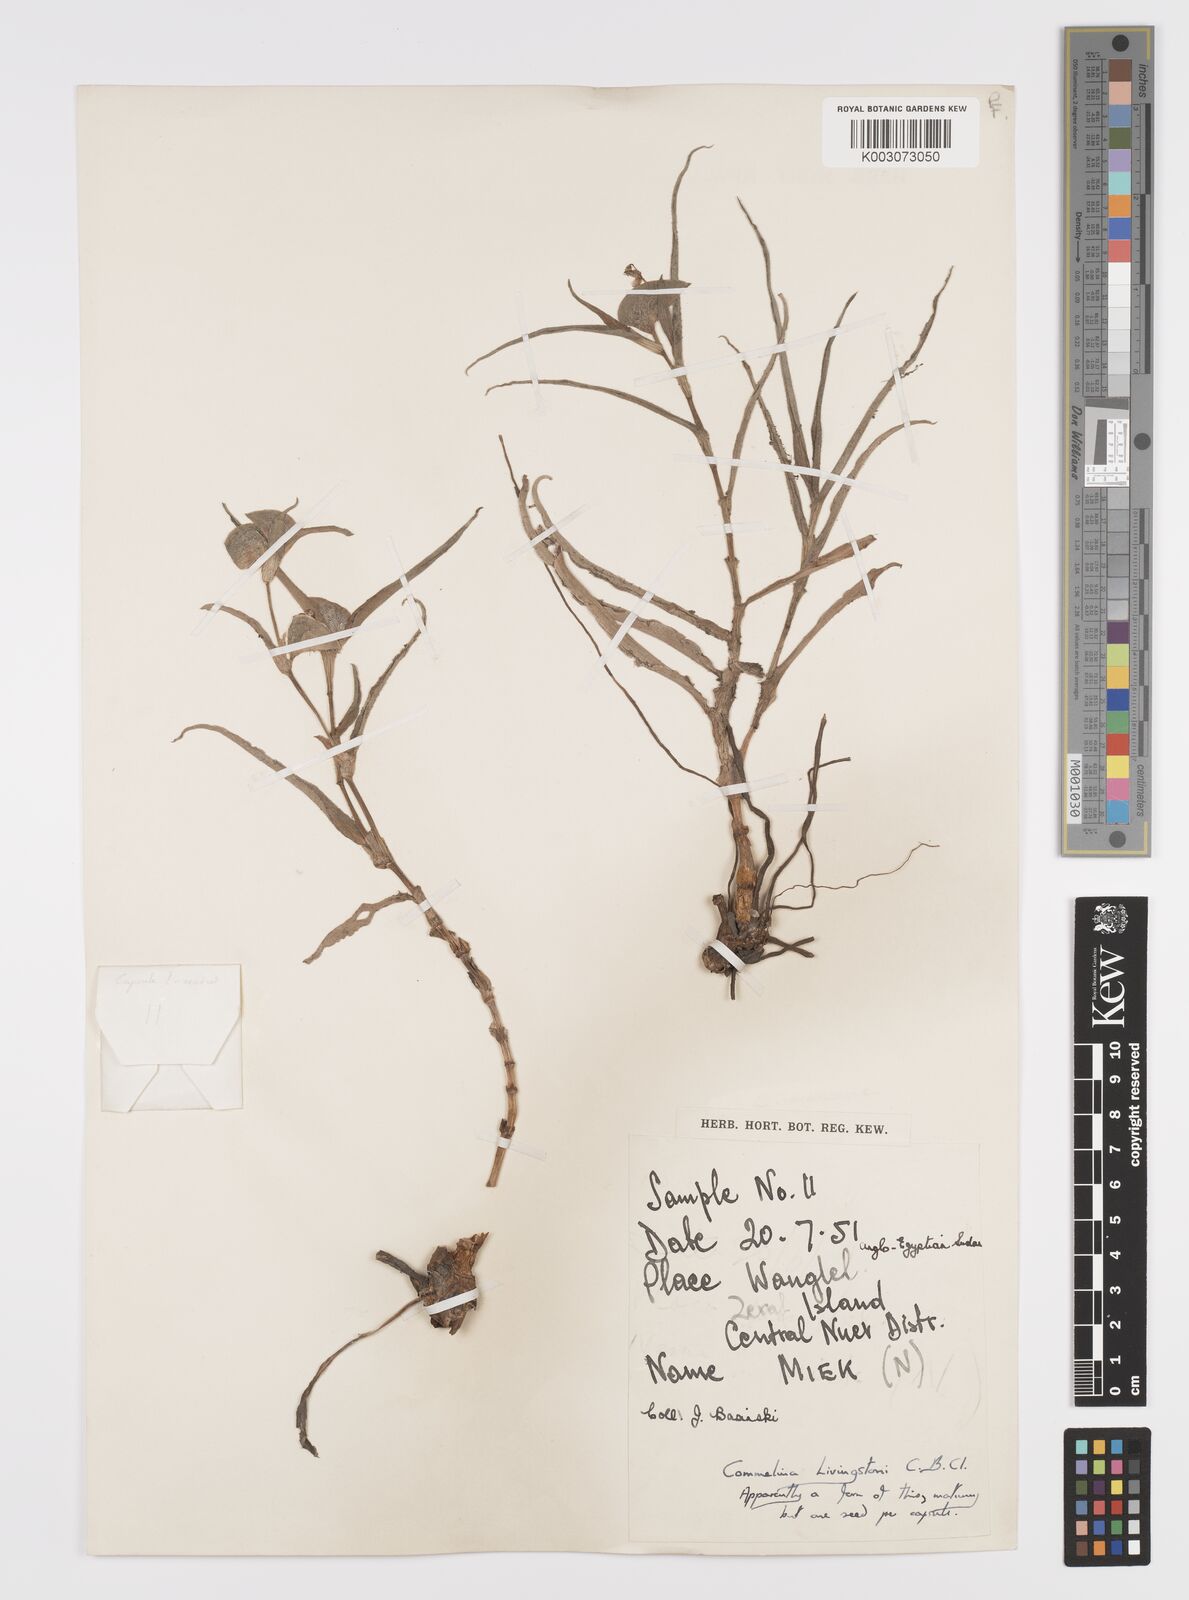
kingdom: Plantae
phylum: Tracheophyta
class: Liliopsida
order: Commelinales
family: Commelinaceae
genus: Commelina
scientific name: Commelina erecta
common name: Blousel blommetjie
